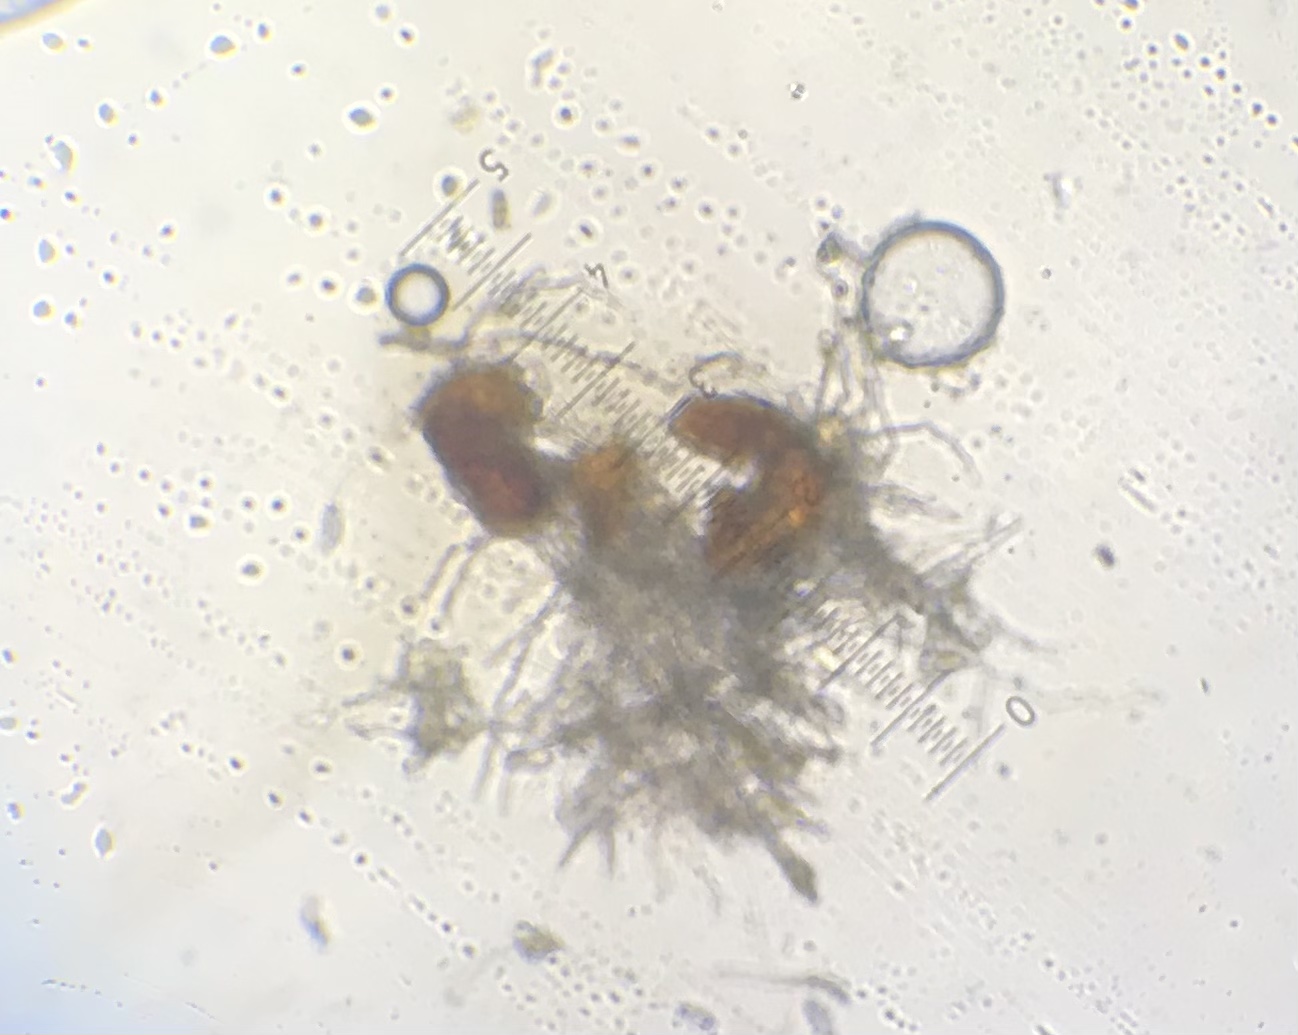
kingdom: Fungi
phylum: Ascomycota
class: Leotiomycetes
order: Helotiales
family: Erysiphaceae
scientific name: Erysiphaceae
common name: meldugfamilien
